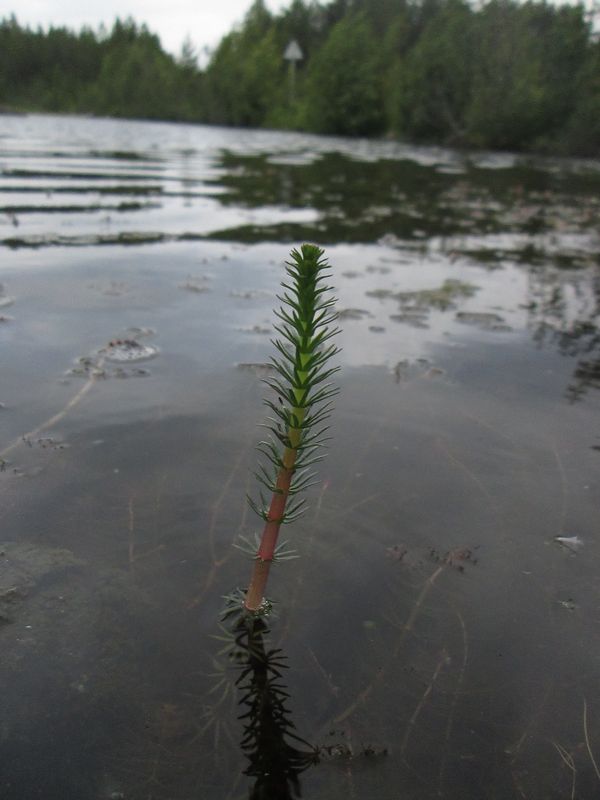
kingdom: Plantae
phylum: Tracheophyta
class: Magnoliopsida
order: Lamiales
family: Plantaginaceae
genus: Hippuris
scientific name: Hippuris vulgaris
